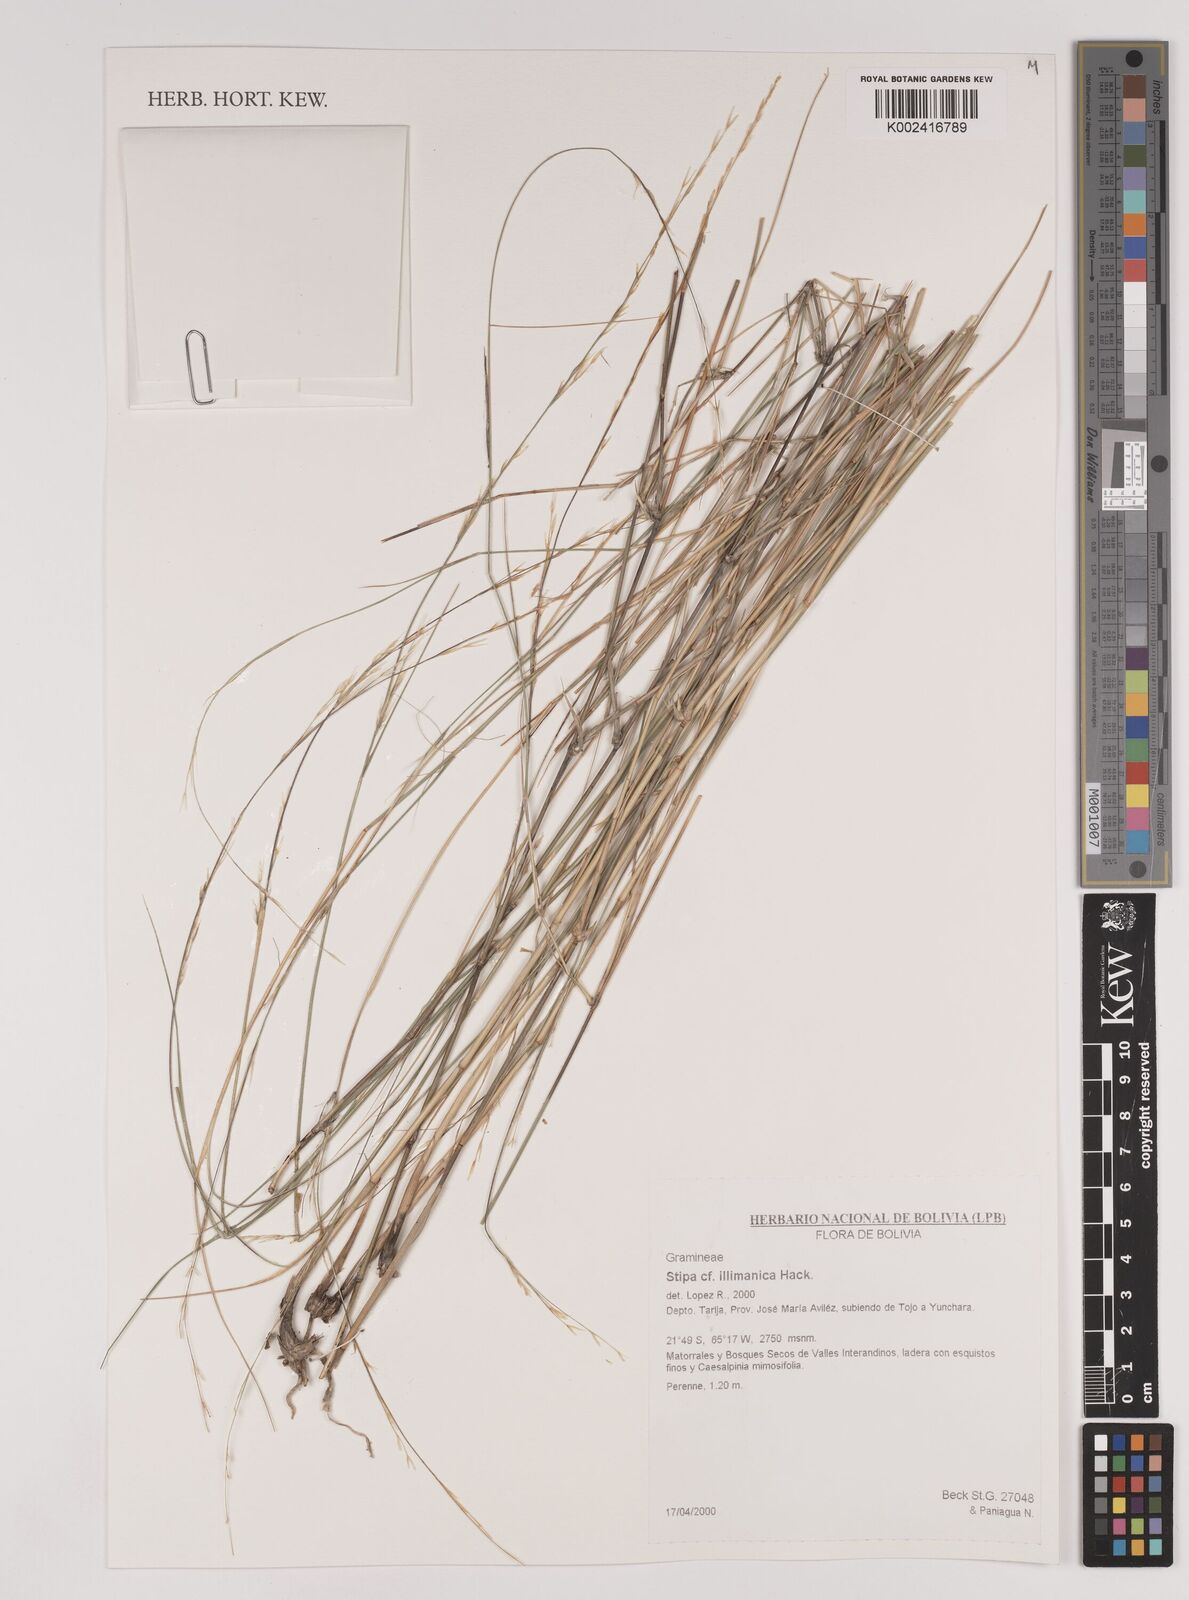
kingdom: Plantae
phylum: Tracheophyta
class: Liliopsida
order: Poales
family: Poaceae
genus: Stipa
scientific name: Stipa illimanica
